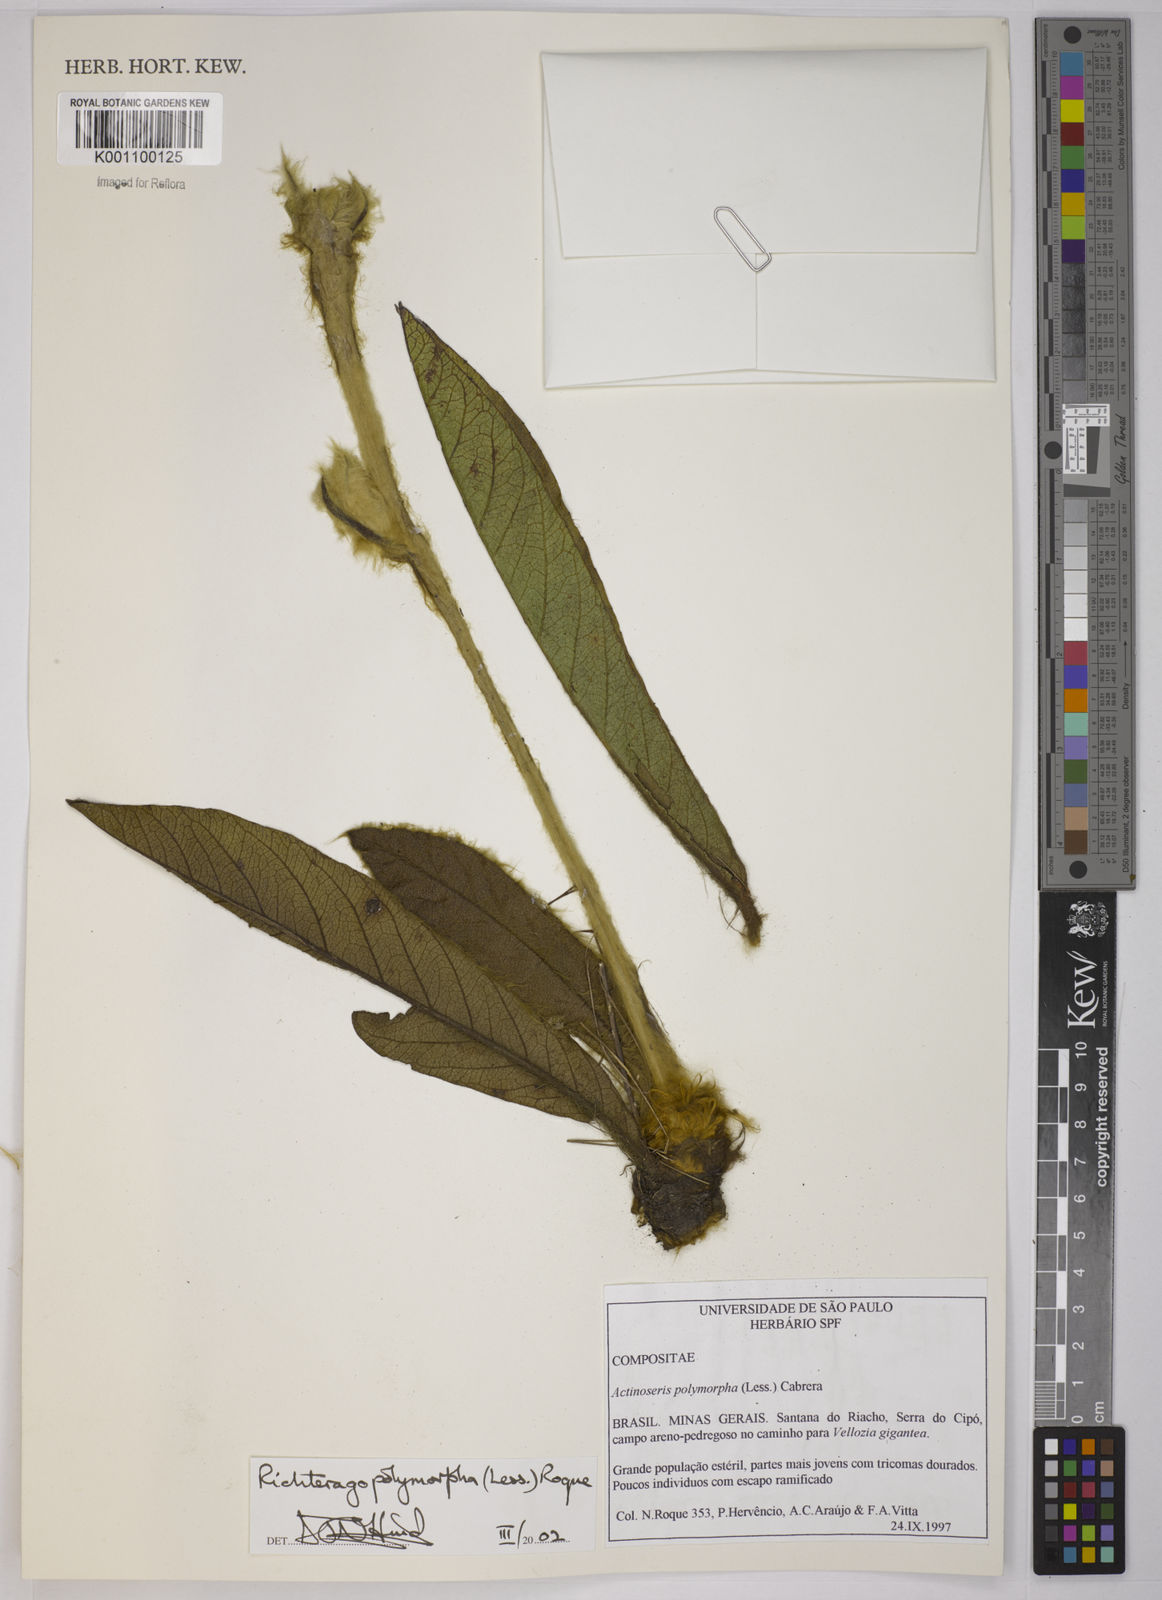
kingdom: Plantae
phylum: Tracheophyta
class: Magnoliopsida
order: Asterales
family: Asteraceae
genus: Richterago
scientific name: Richterago polymorpha
